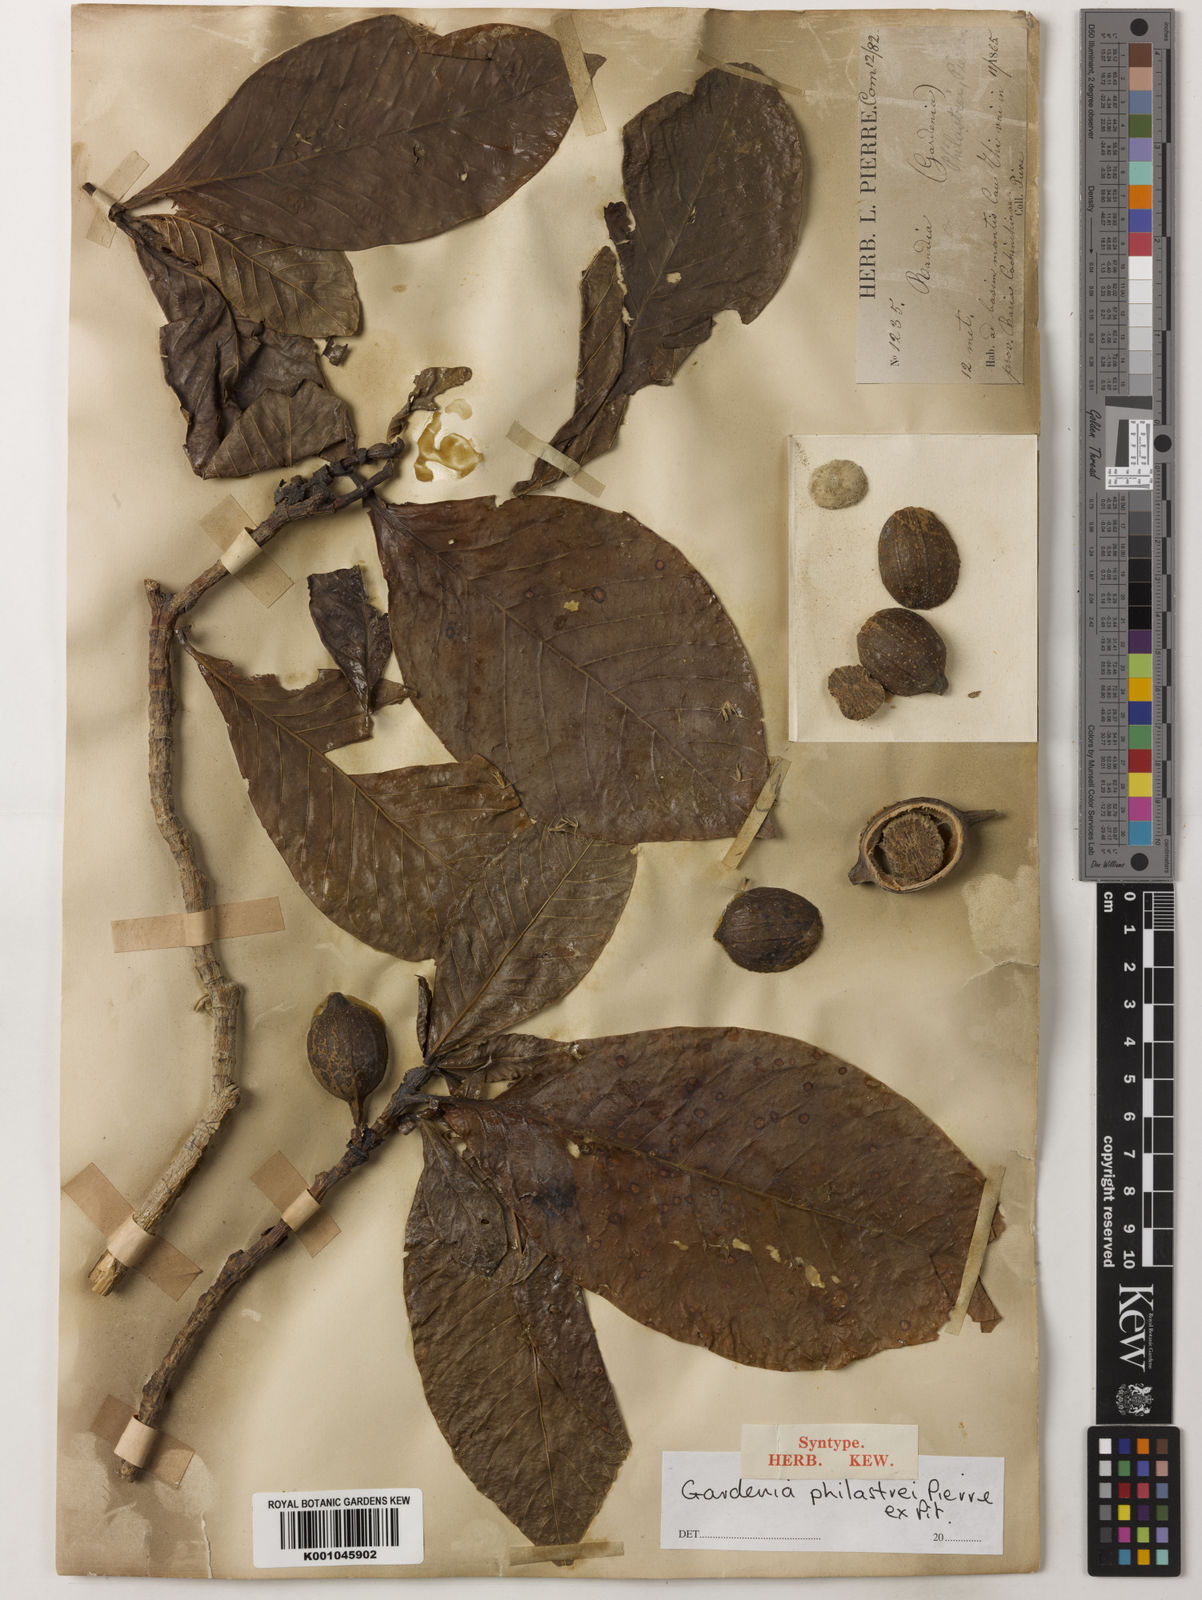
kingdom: Plantae
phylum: Tracheophyta
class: Magnoliopsida
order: Gentianales
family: Rubiaceae
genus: Gardenia
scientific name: Gardenia philastrei
